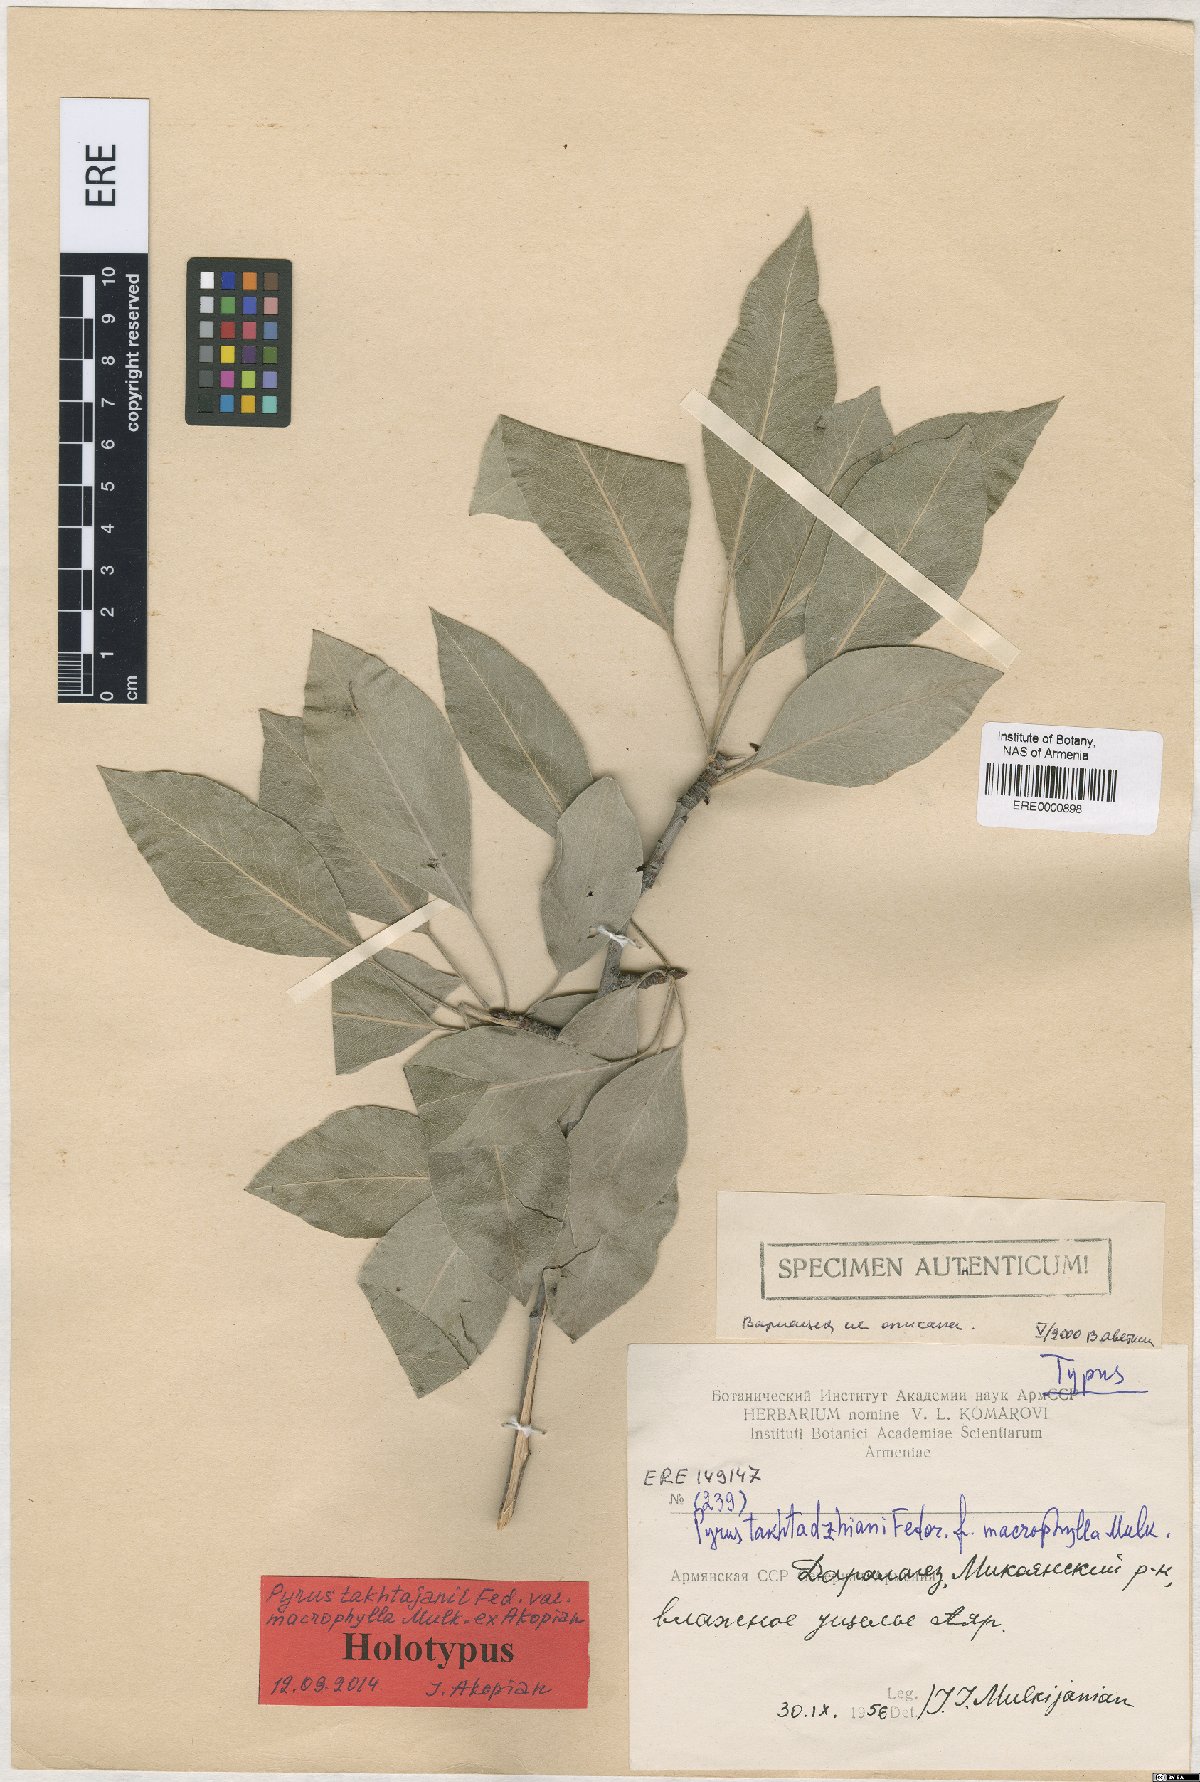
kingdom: Plantae
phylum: Tracheophyta
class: Magnoliopsida
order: Rosales
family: Rosaceae
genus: Pyrus
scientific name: Pyrus takhtadzhianii
